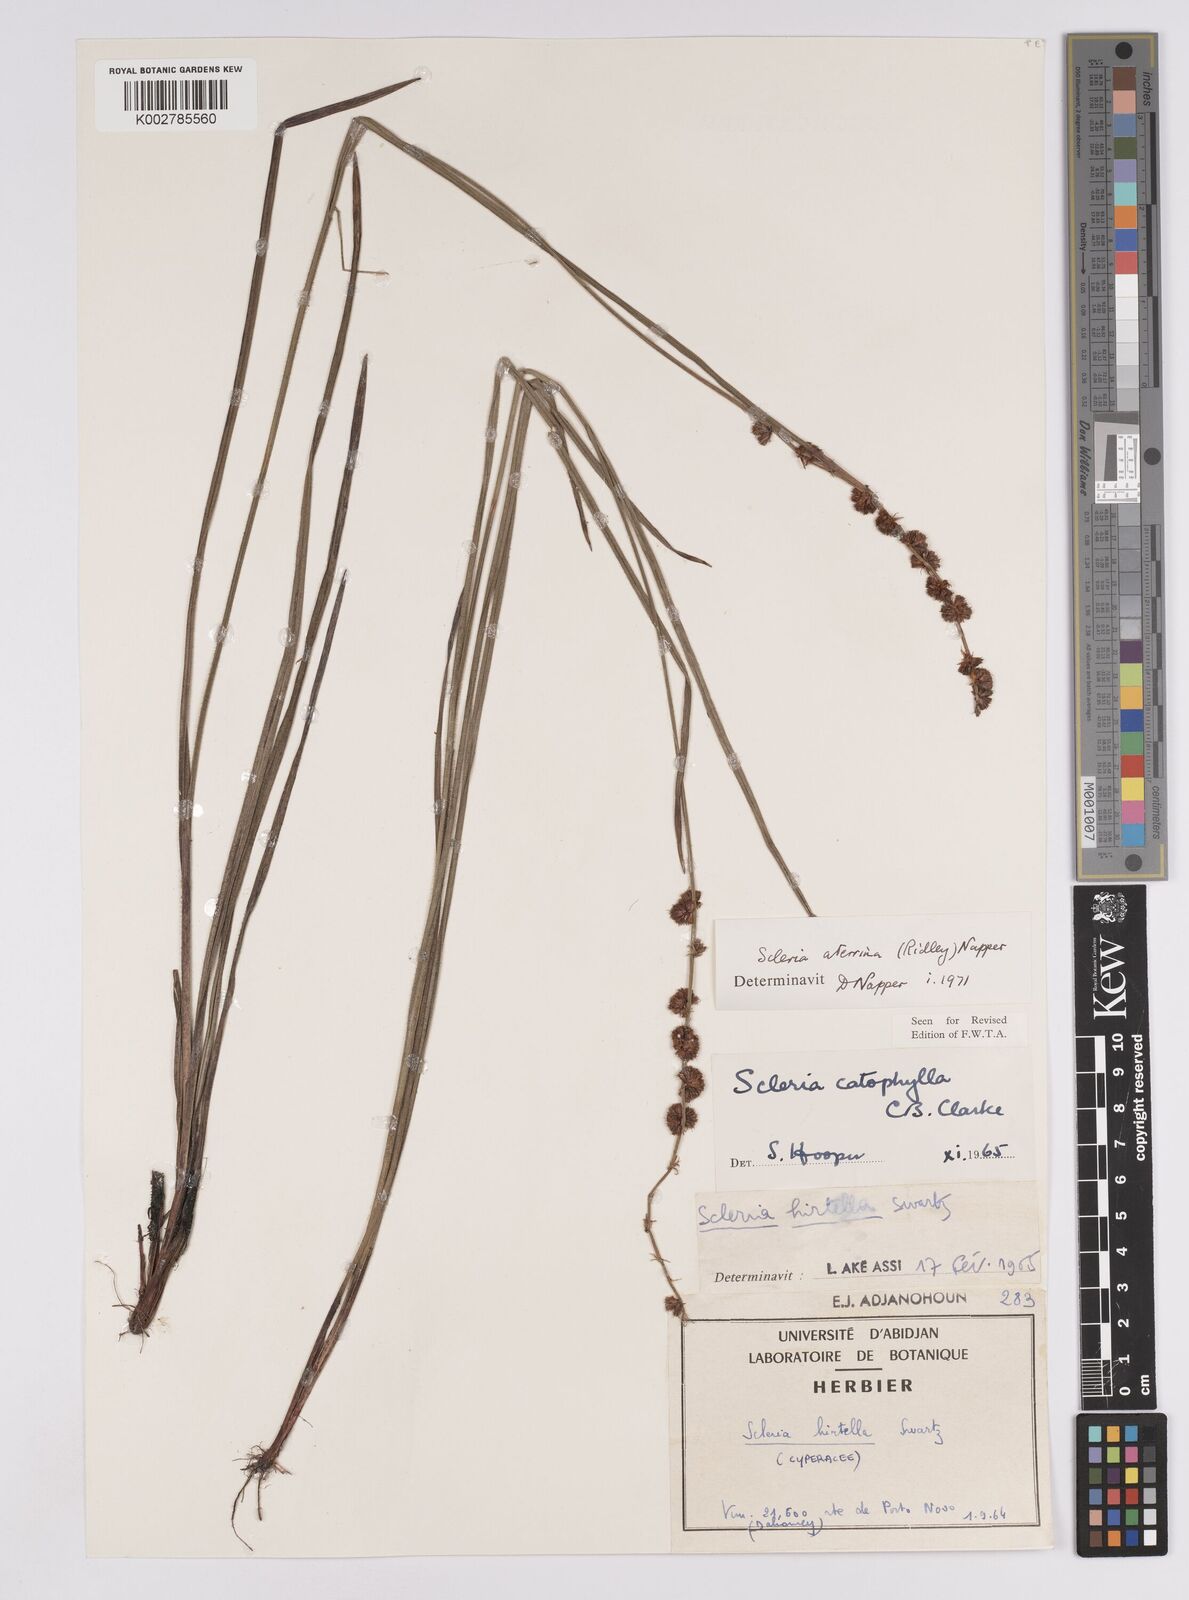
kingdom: Plantae
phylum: Tracheophyta
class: Liliopsida
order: Poales
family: Cyperaceae
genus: Scleria
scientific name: Scleria catophylla
